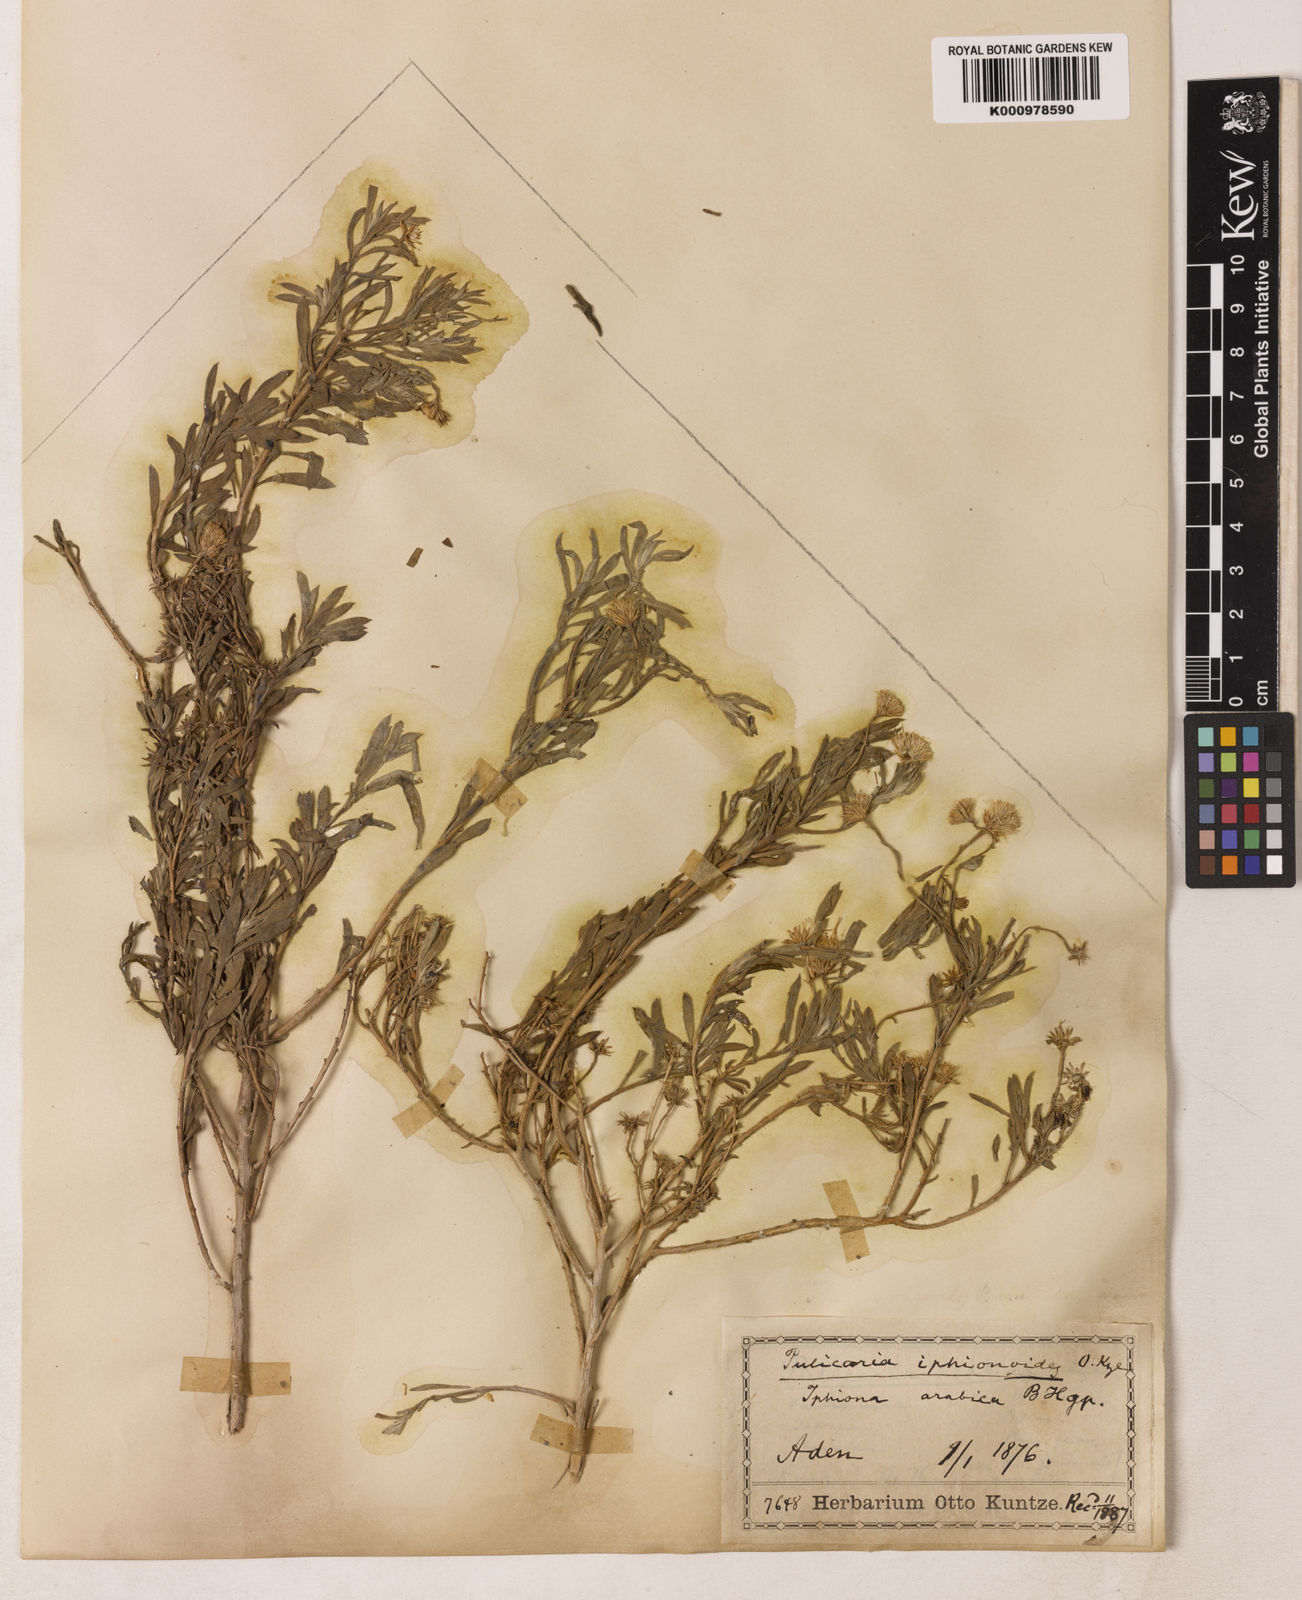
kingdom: Plantae
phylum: Tracheophyta
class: Magnoliopsida
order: Asterales
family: Asteraceae
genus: Pulicaria
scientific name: Pulicaria
